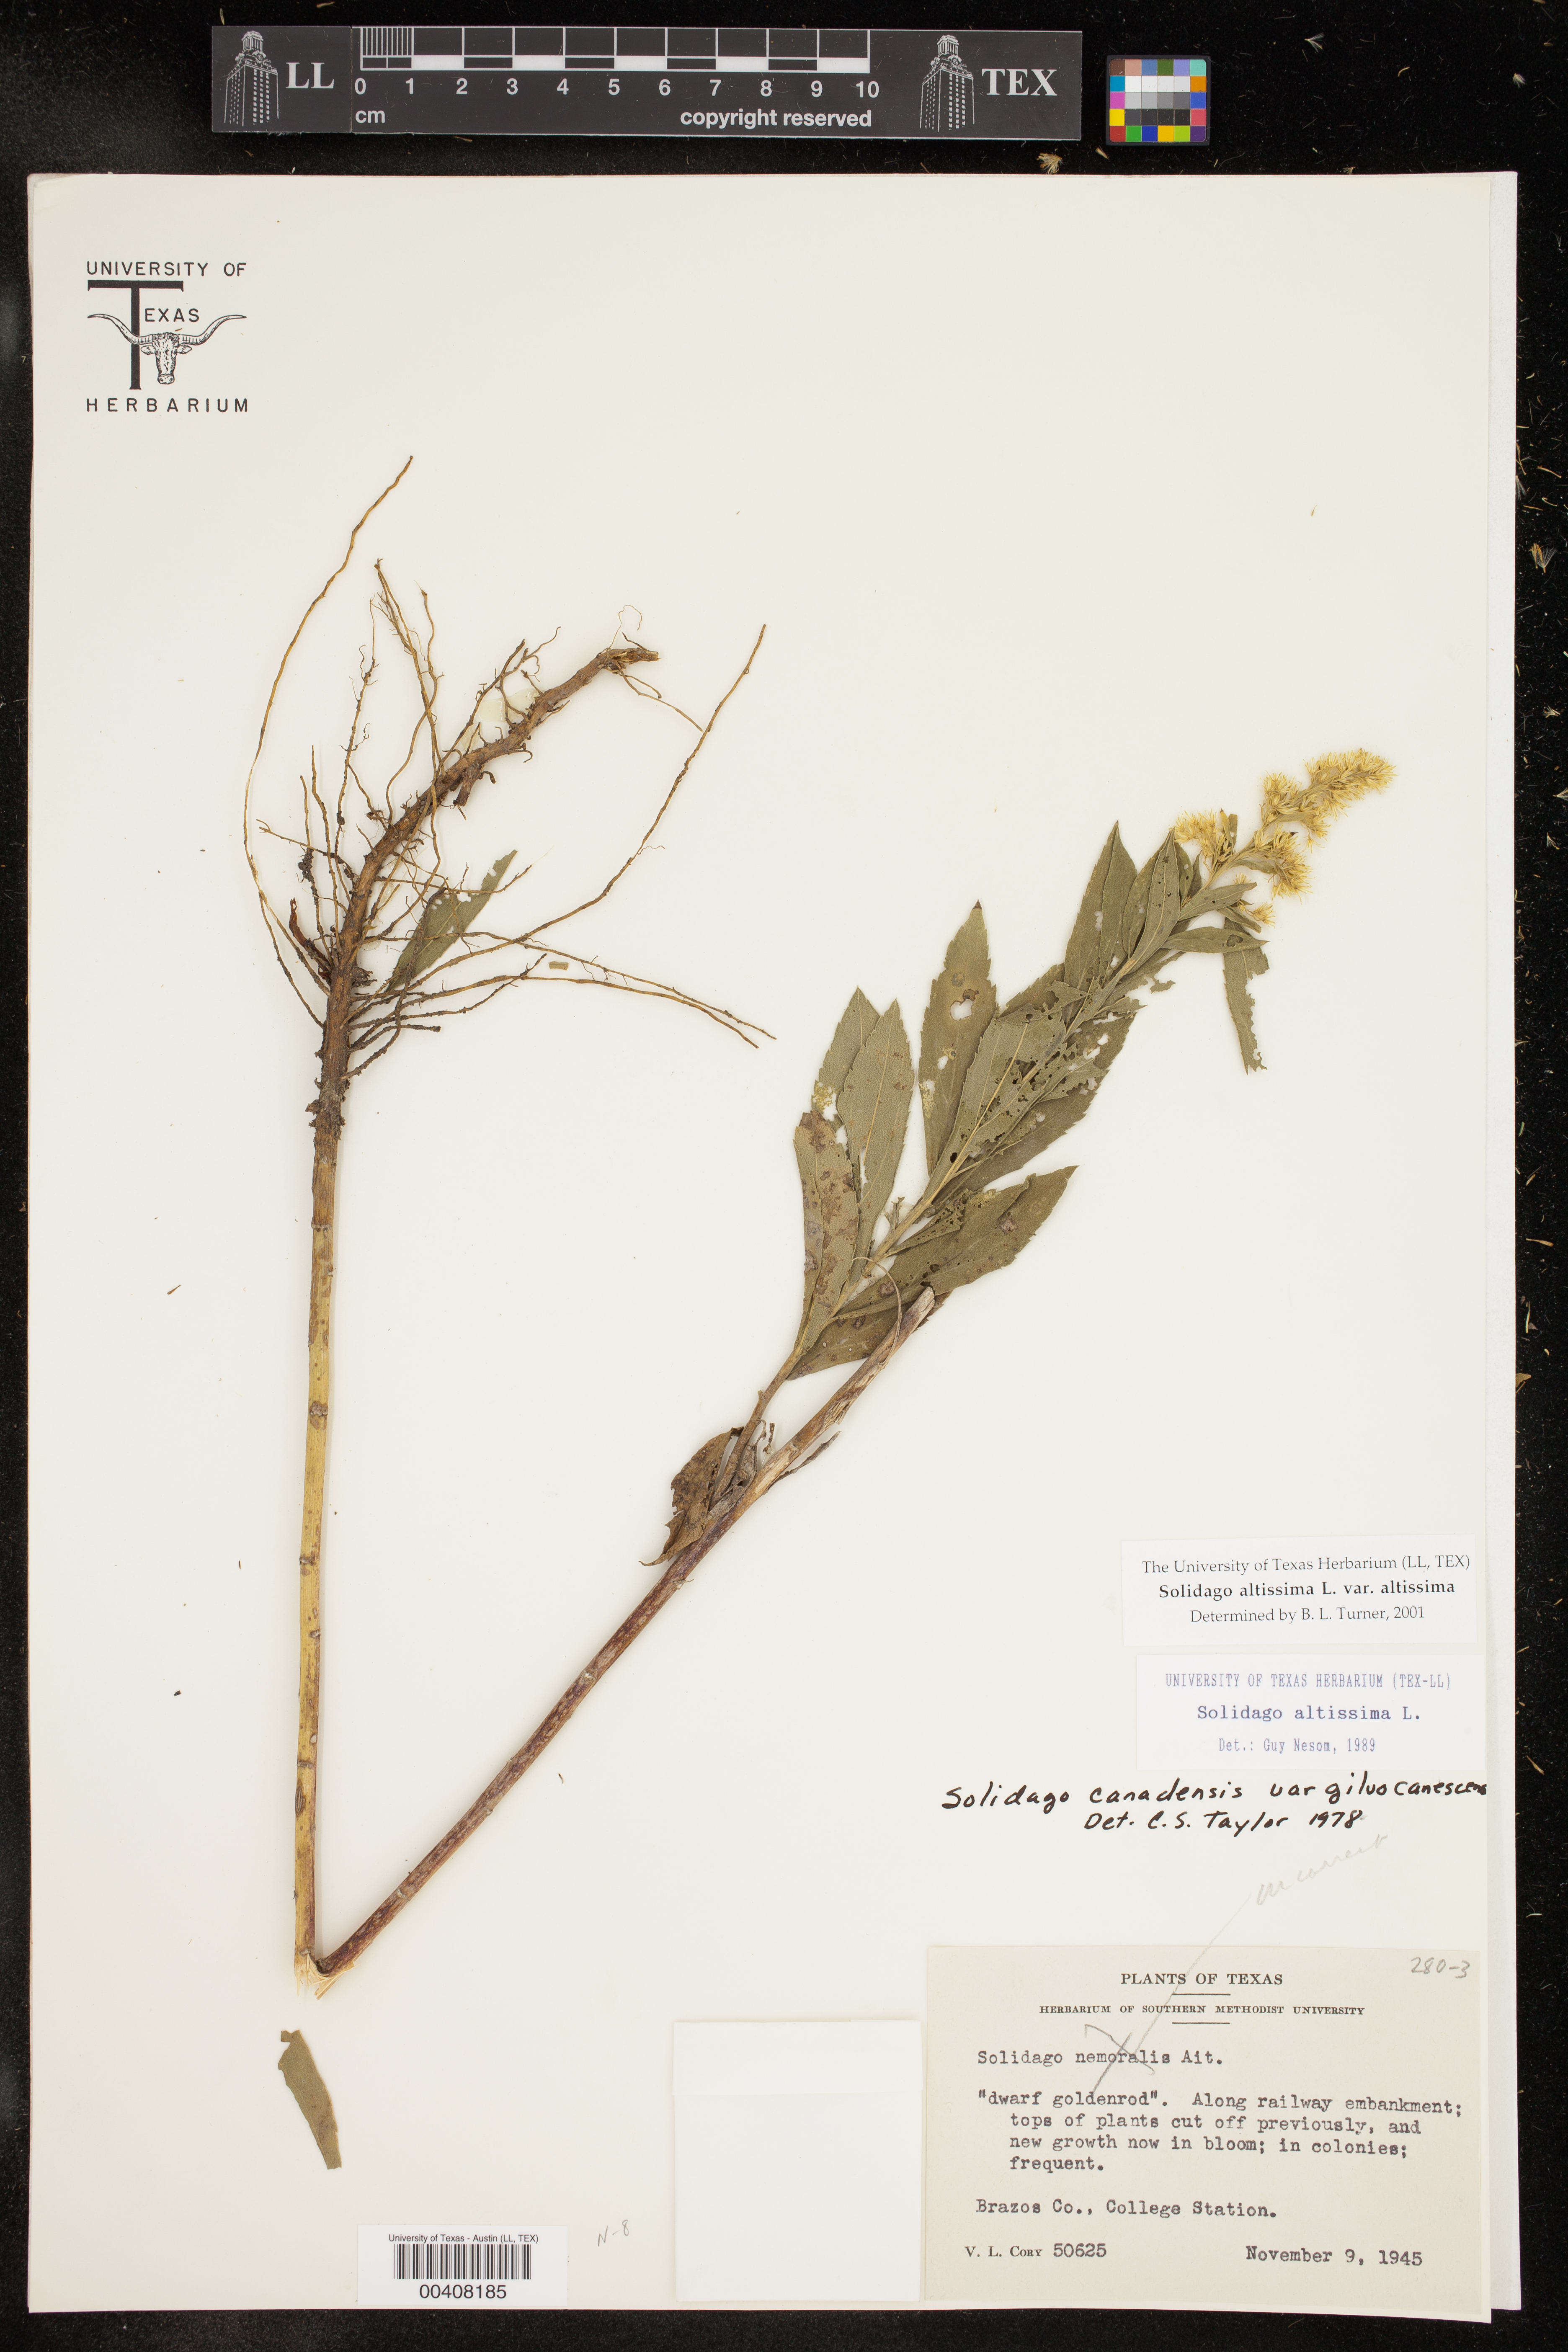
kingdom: Plantae
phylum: Tracheophyta
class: Magnoliopsida
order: Asterales
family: Asteraceae
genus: Solidago
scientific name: Solidago altissima
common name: Late goldenrod
